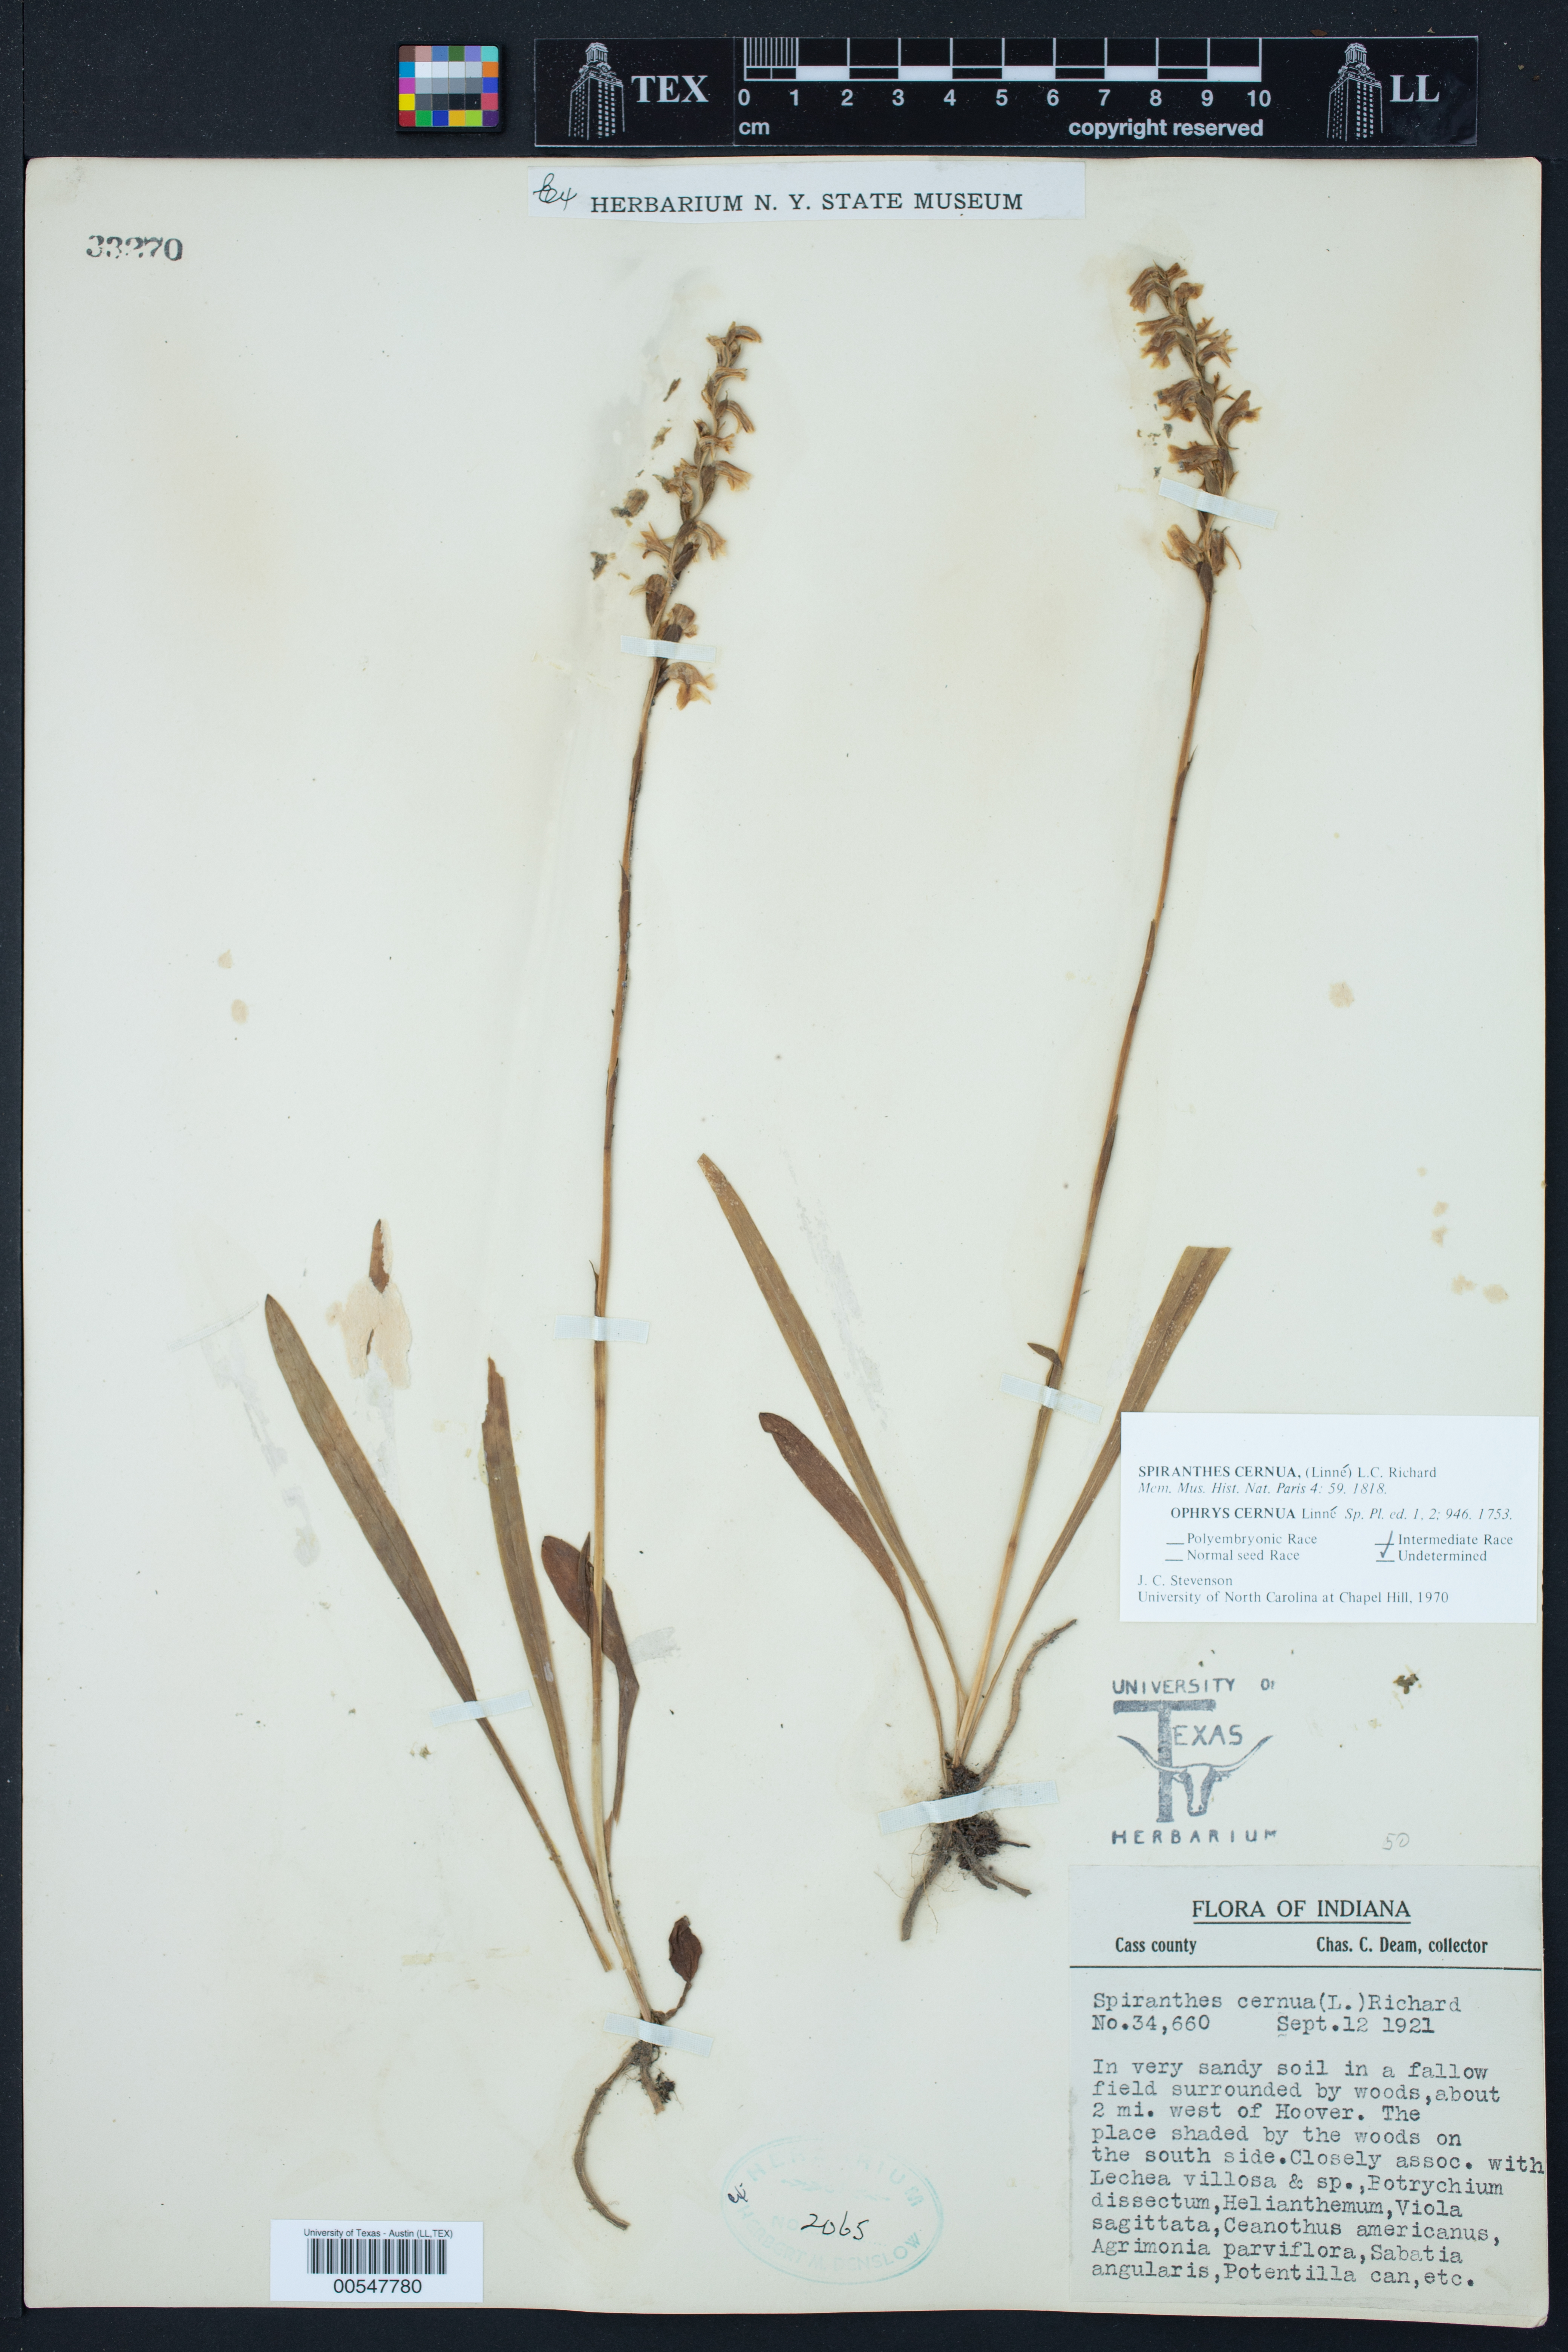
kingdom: Plantae
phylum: Tracheophyta
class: Liliopsida
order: Asparagales
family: Orchidaceae
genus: Spiranthes
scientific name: Spiranthes cernua
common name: Dropping ladies'-tresses
